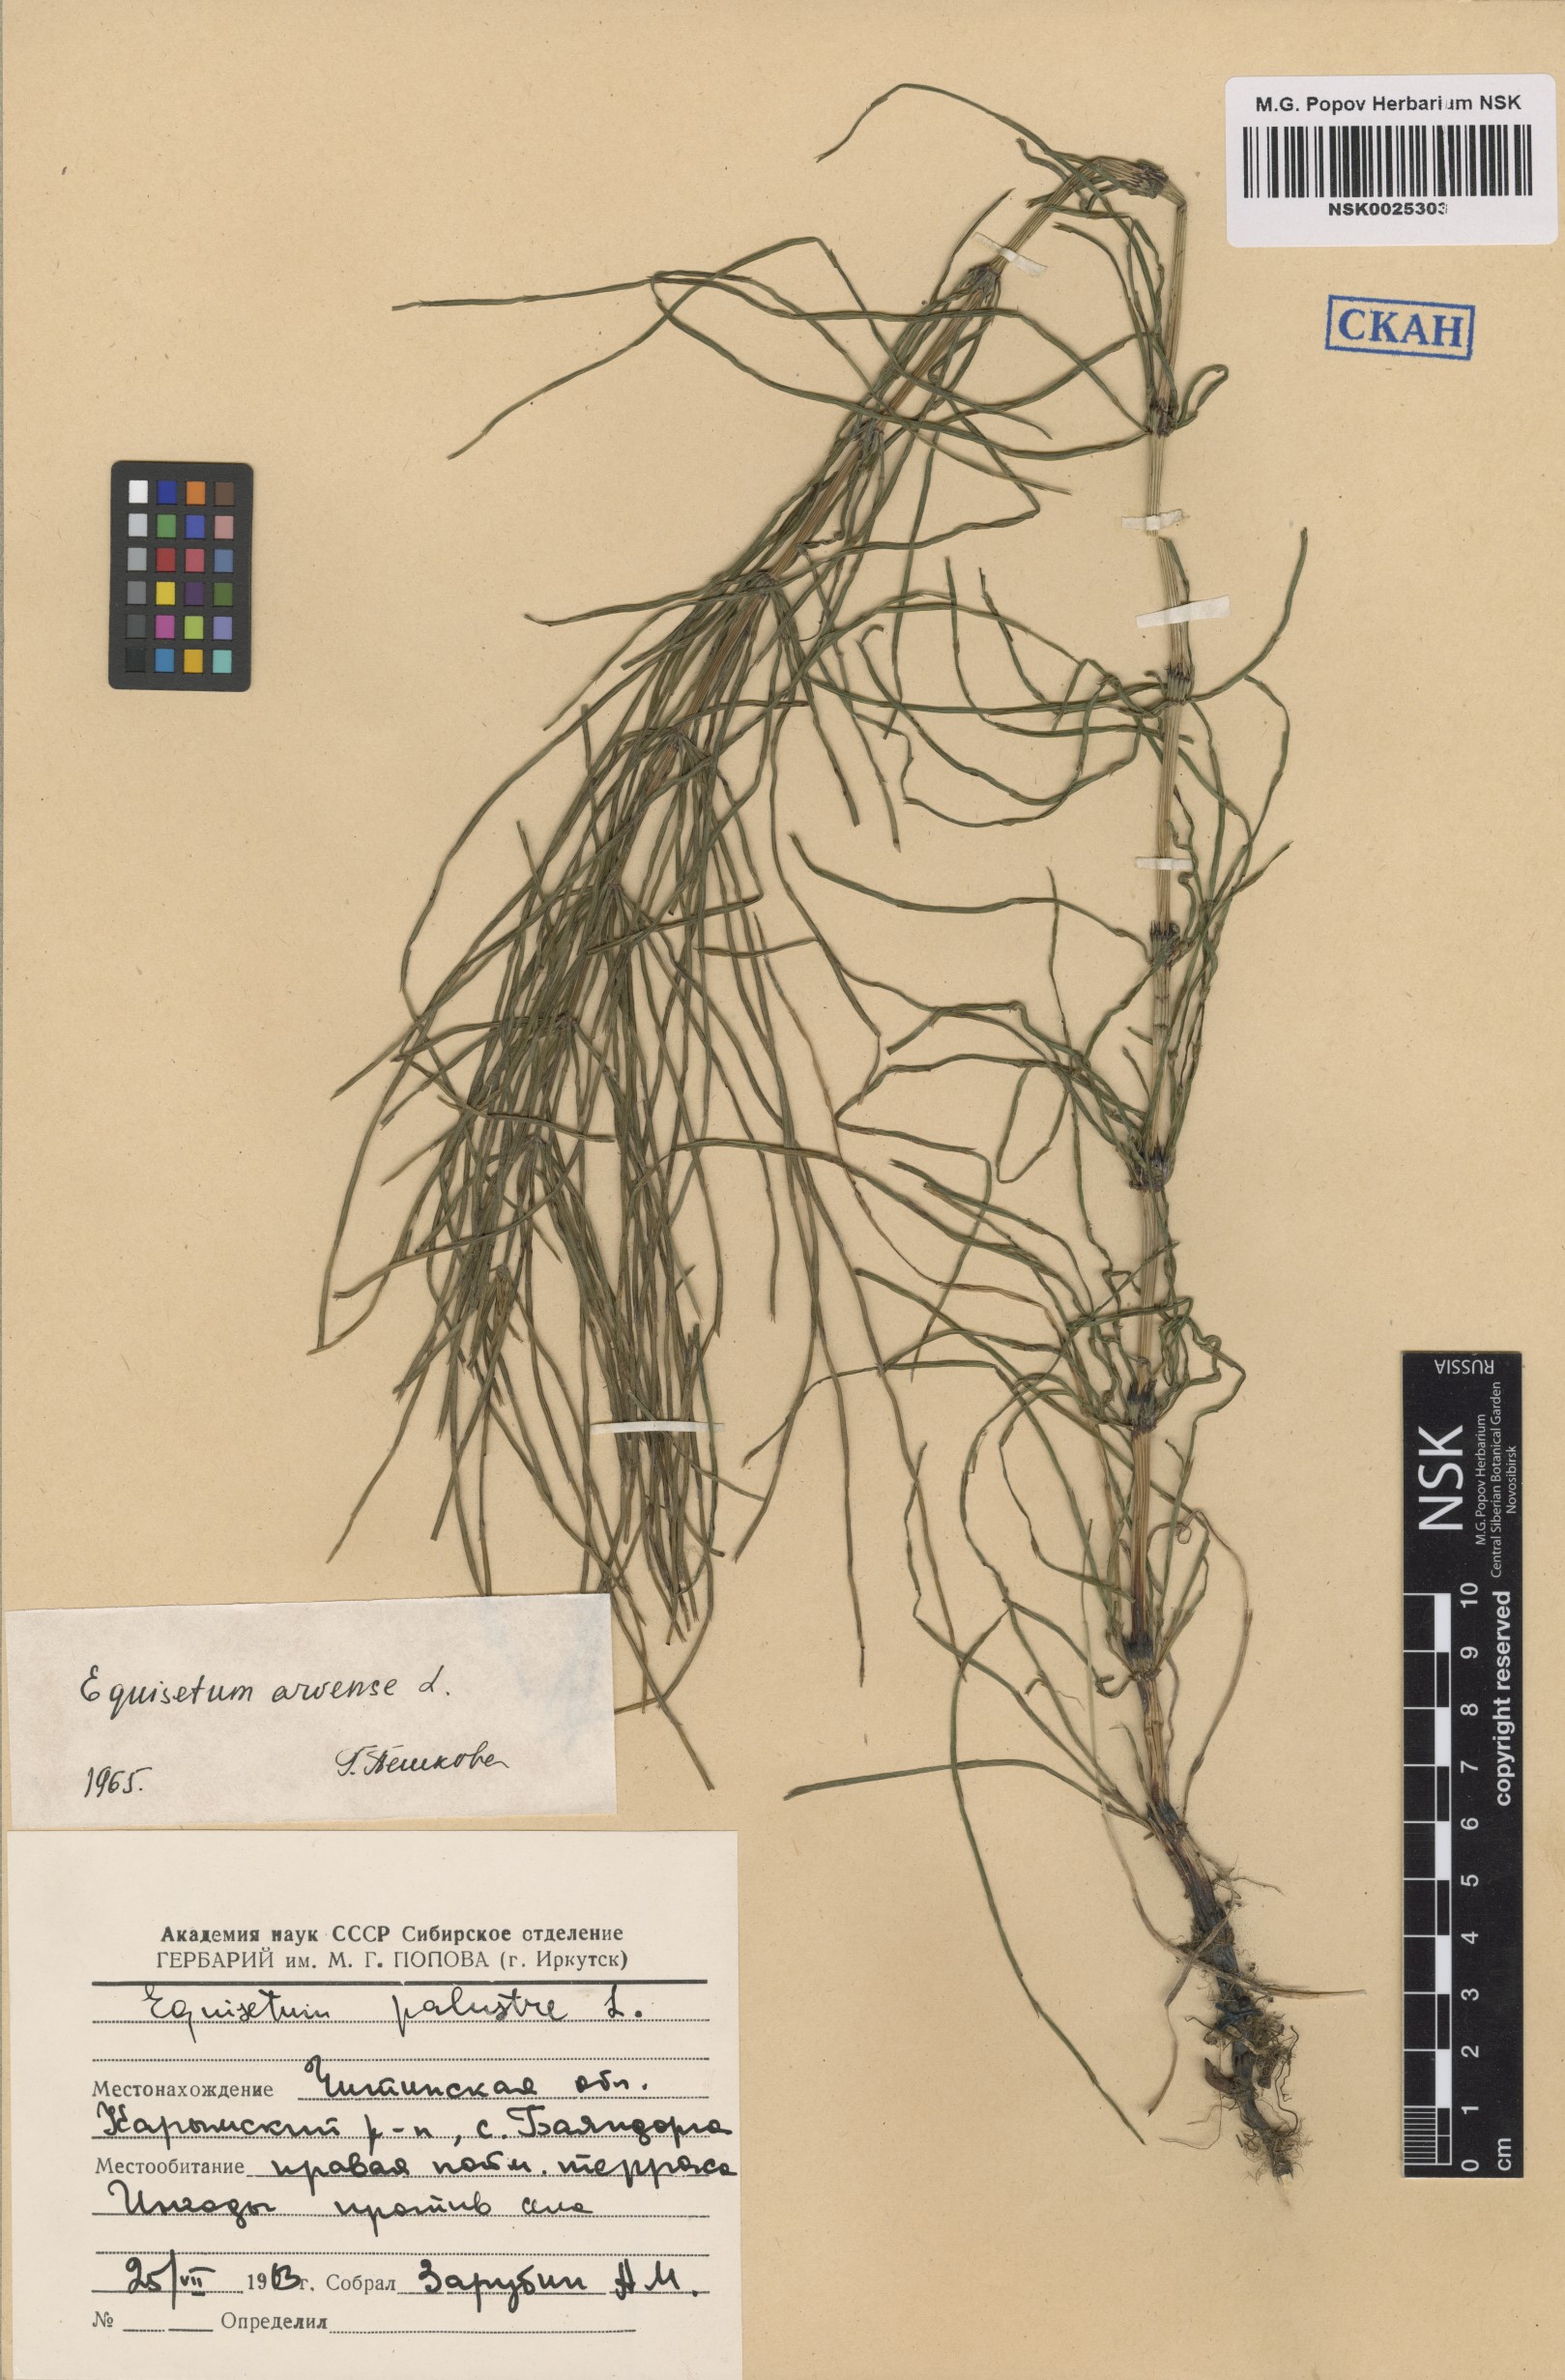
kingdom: Plantae
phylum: Tracheophyta
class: Polypodiopsida
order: Equisetales
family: Equisetaceae
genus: Equisetum
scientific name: Equisetum arvense
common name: Field horsetail
